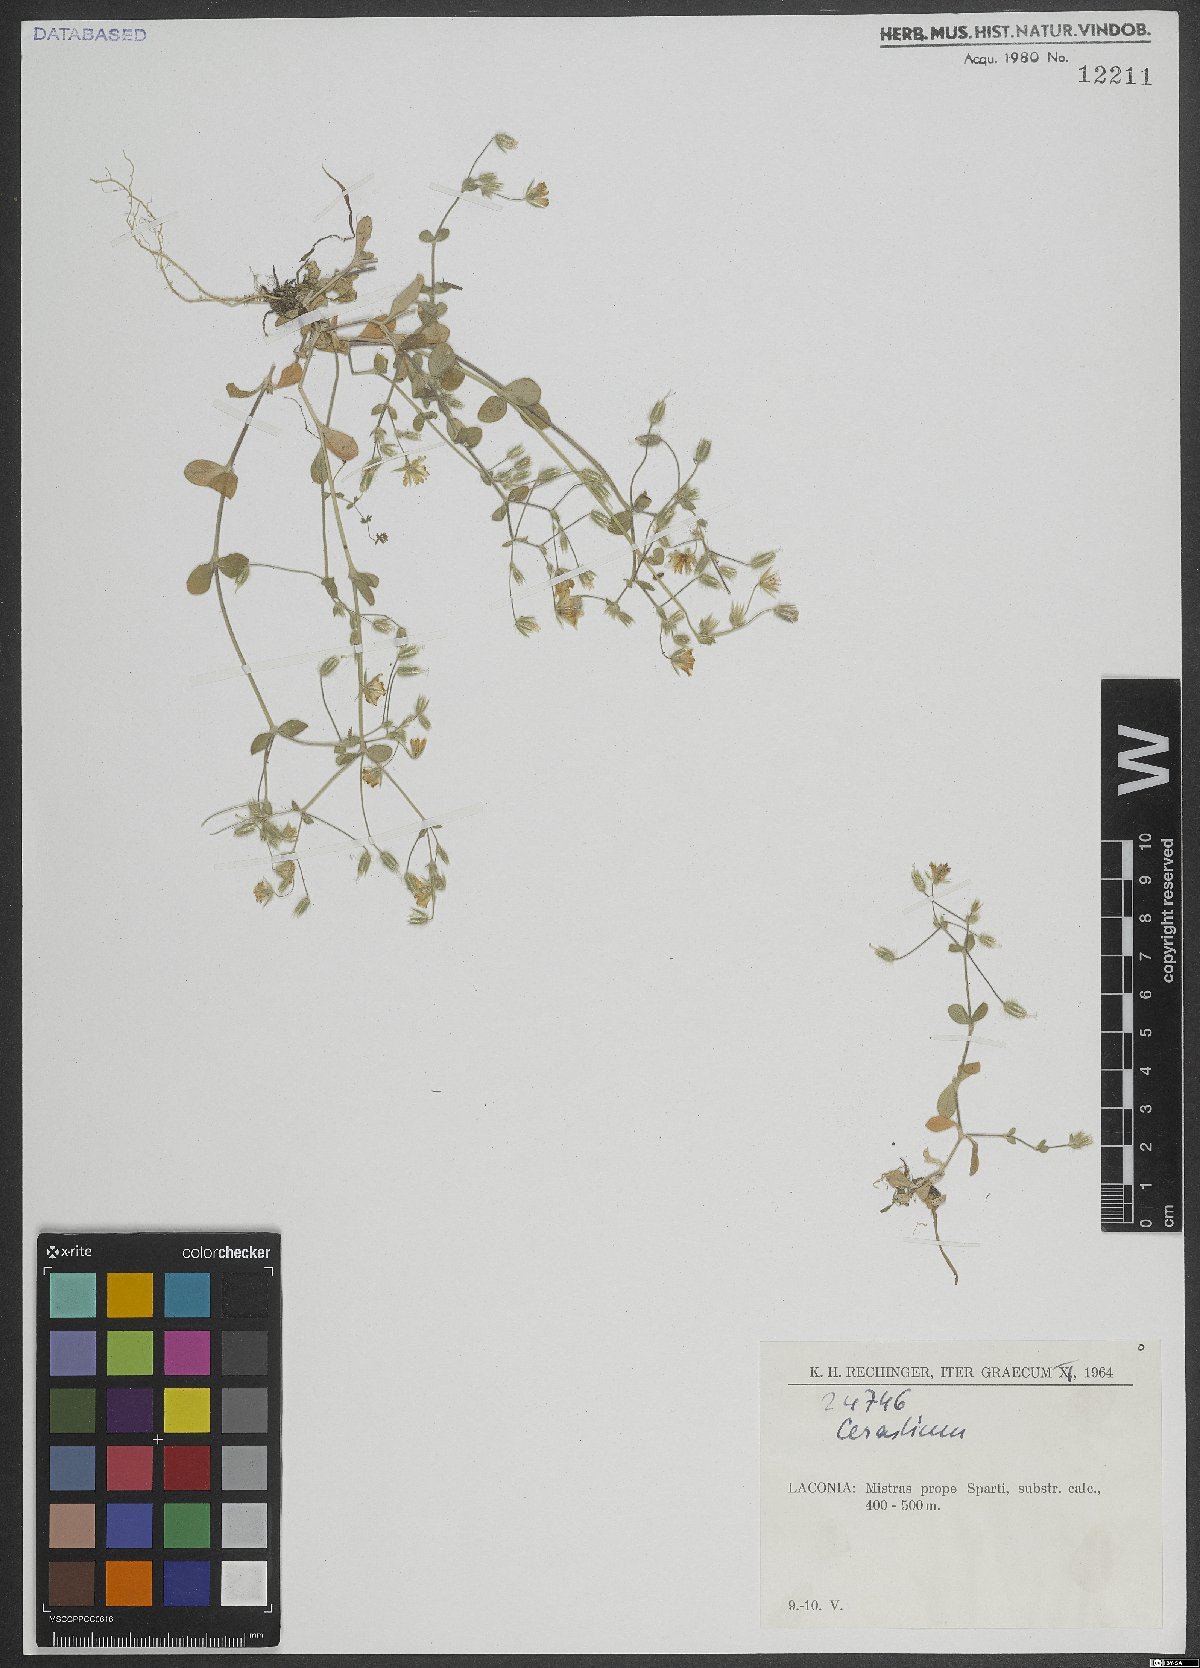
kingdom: Plantae
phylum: Tracheophyta
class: Magnoliopsida
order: Caryophyllales
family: Caryophyllaceae
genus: Cerastium
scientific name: Cerastium
